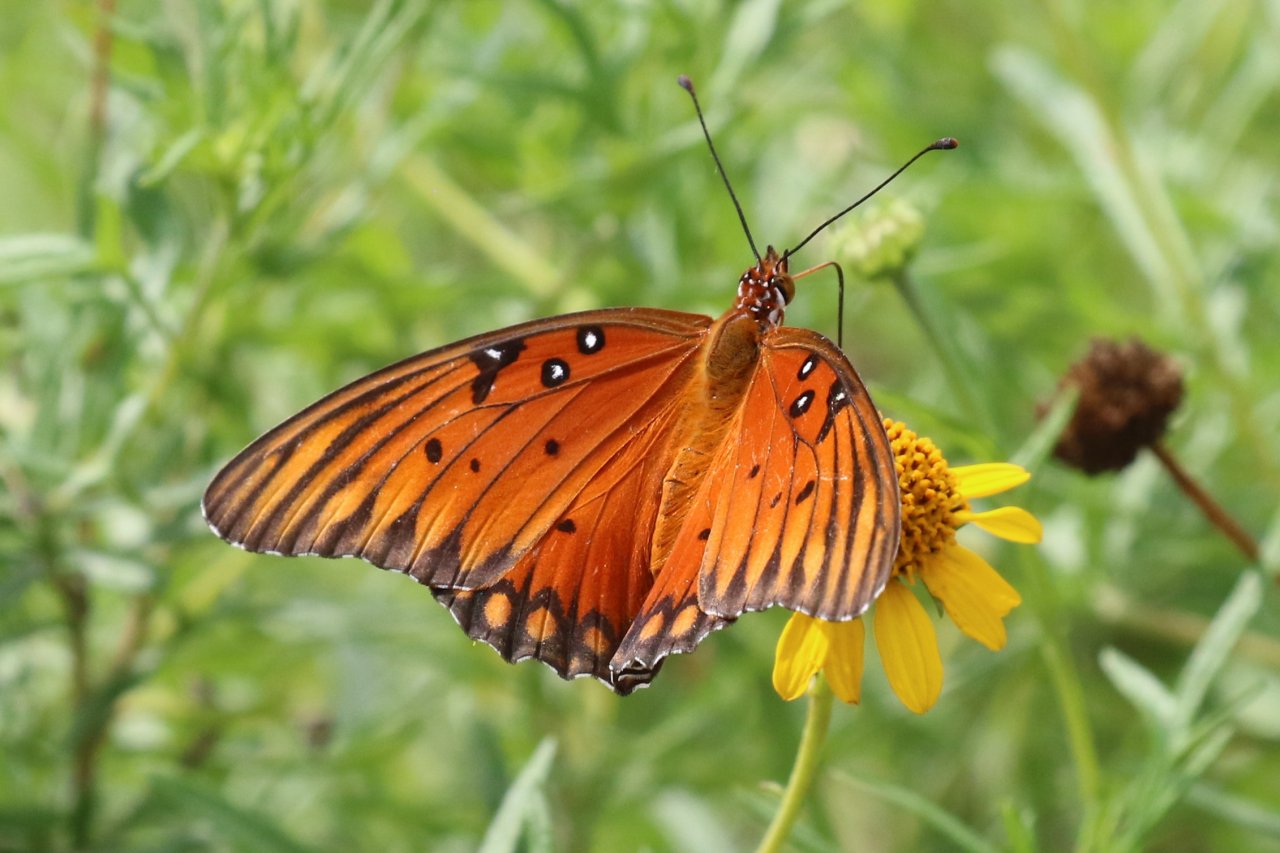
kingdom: Animalia
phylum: Arthropoda
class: Insecta
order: Lepidoptera
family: Nymphalidae
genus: Dione
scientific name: Dione vanillae
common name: Gulf Fritillary
